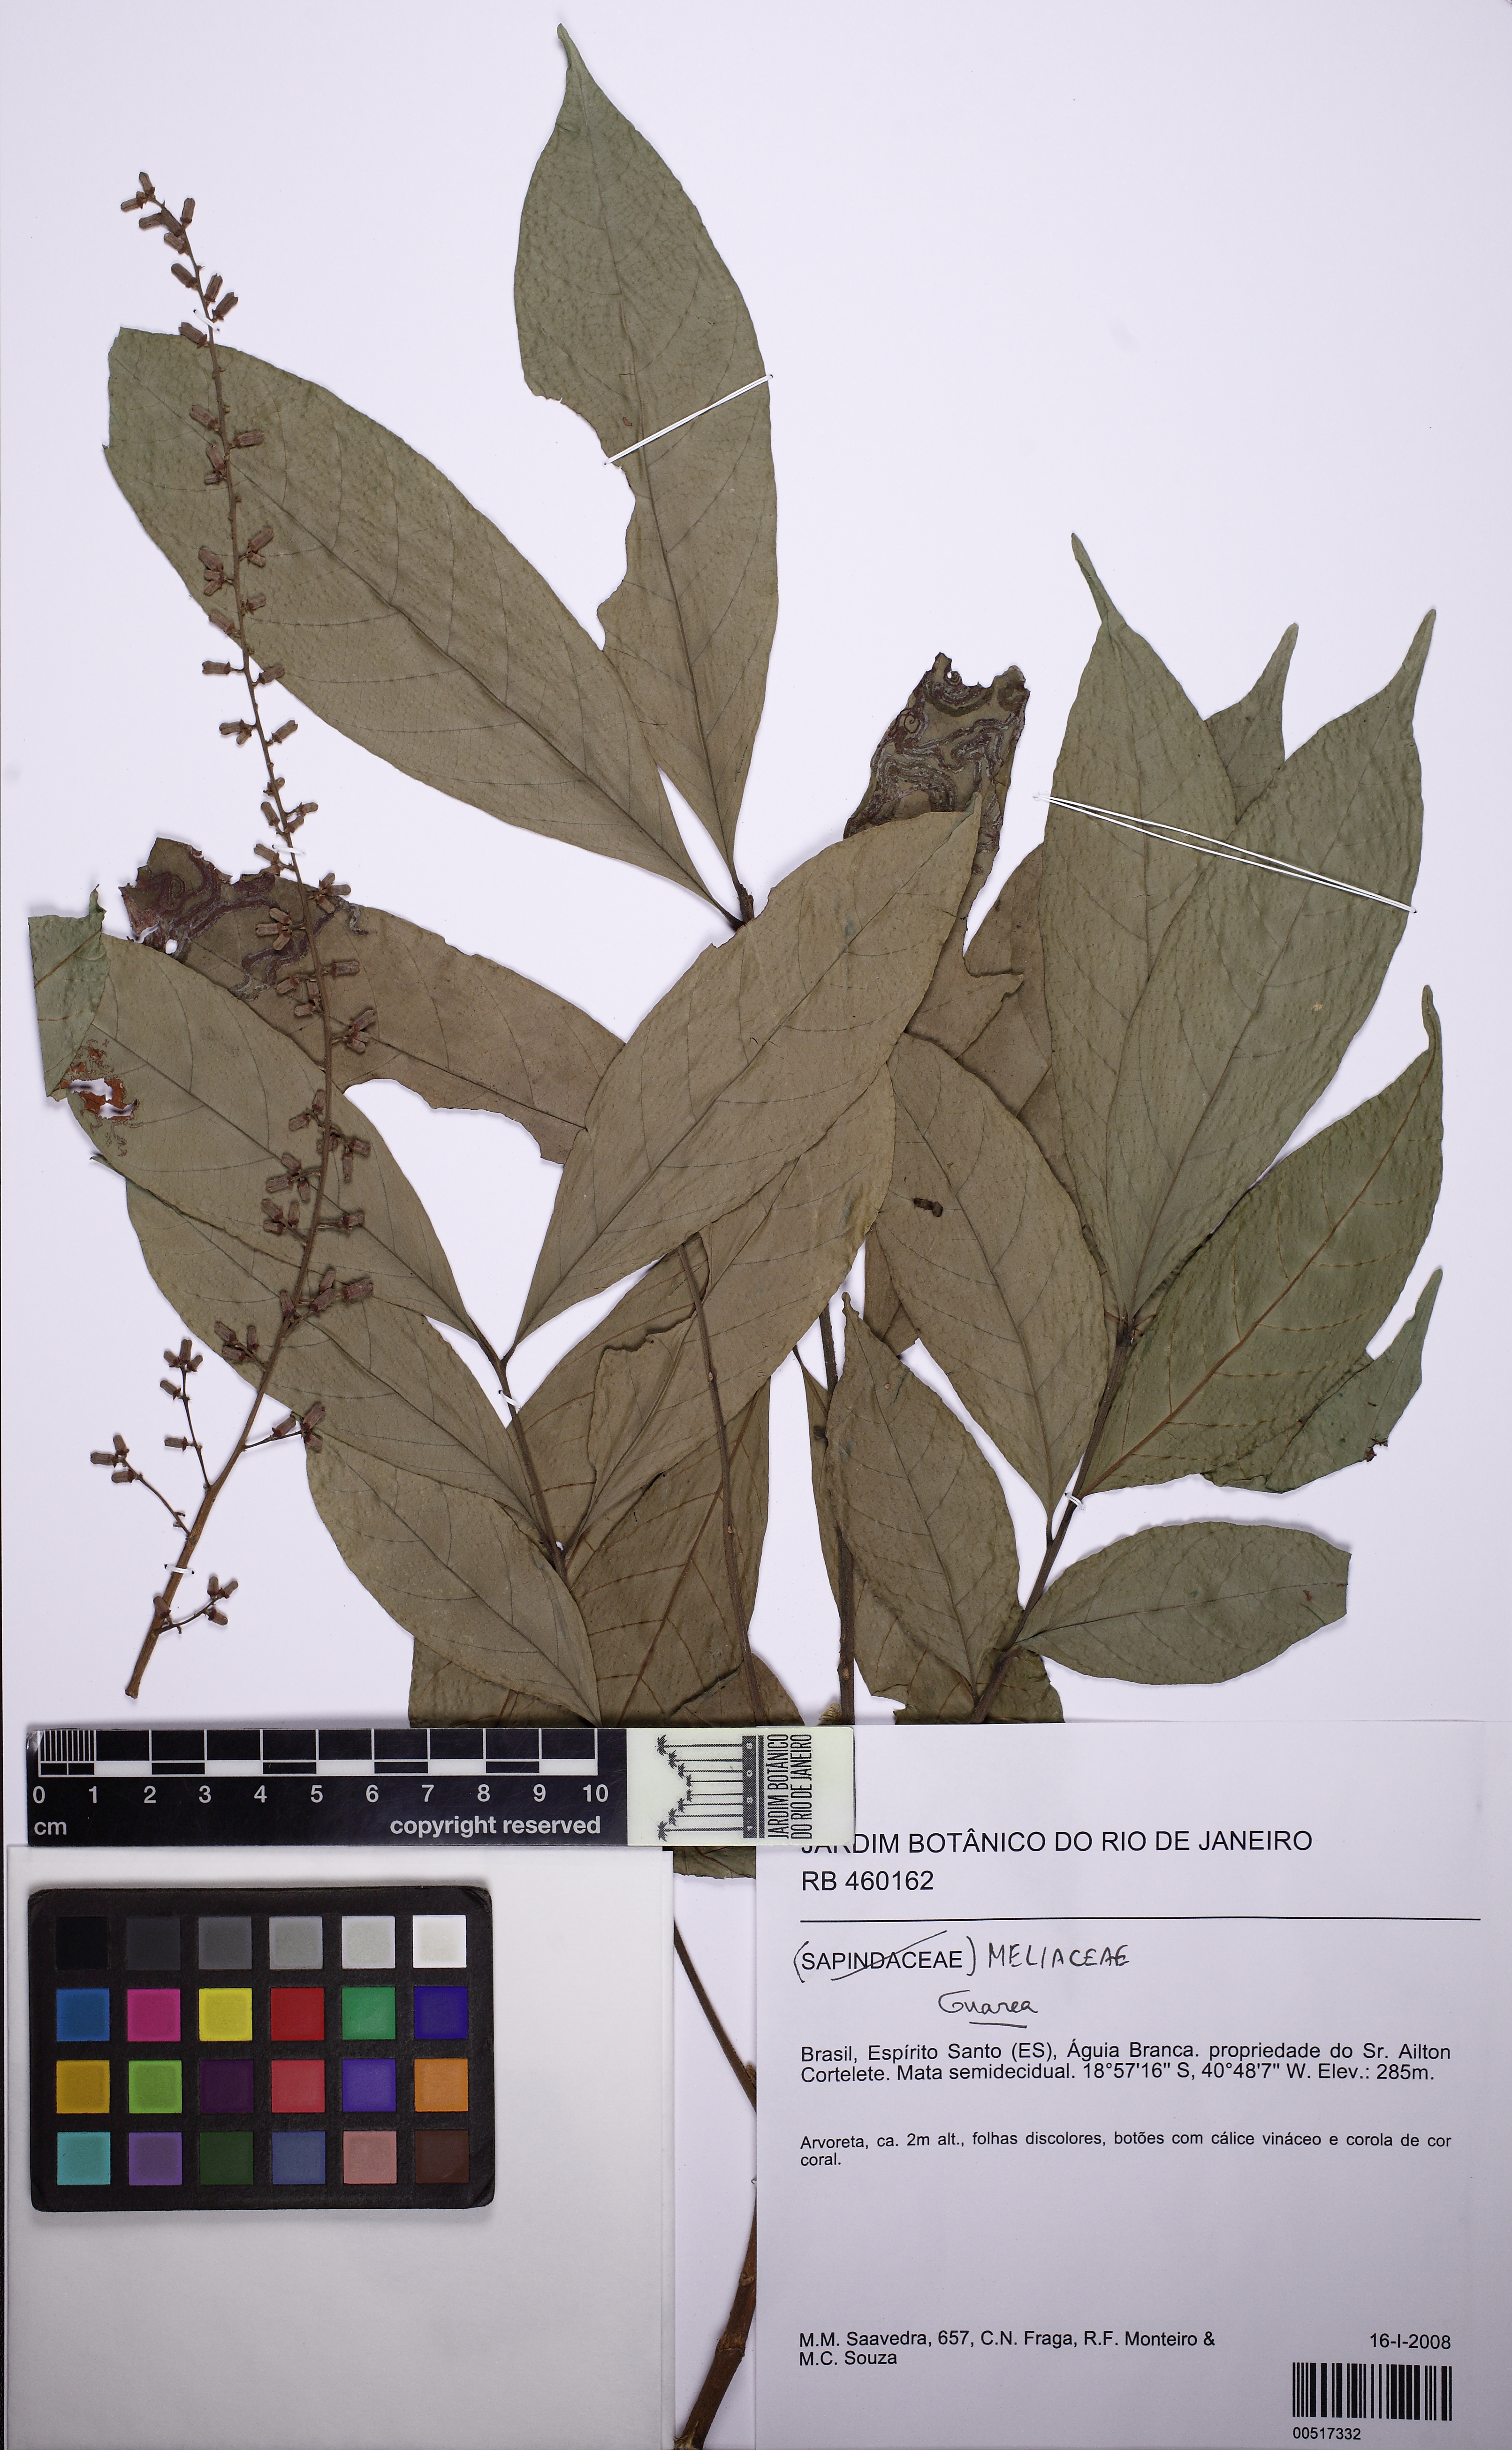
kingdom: Plantae
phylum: Tracheophyta
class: Magnoliopsida
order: Sapindales
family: Meliaceae
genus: Guarea
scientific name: Guarea macrophylla
